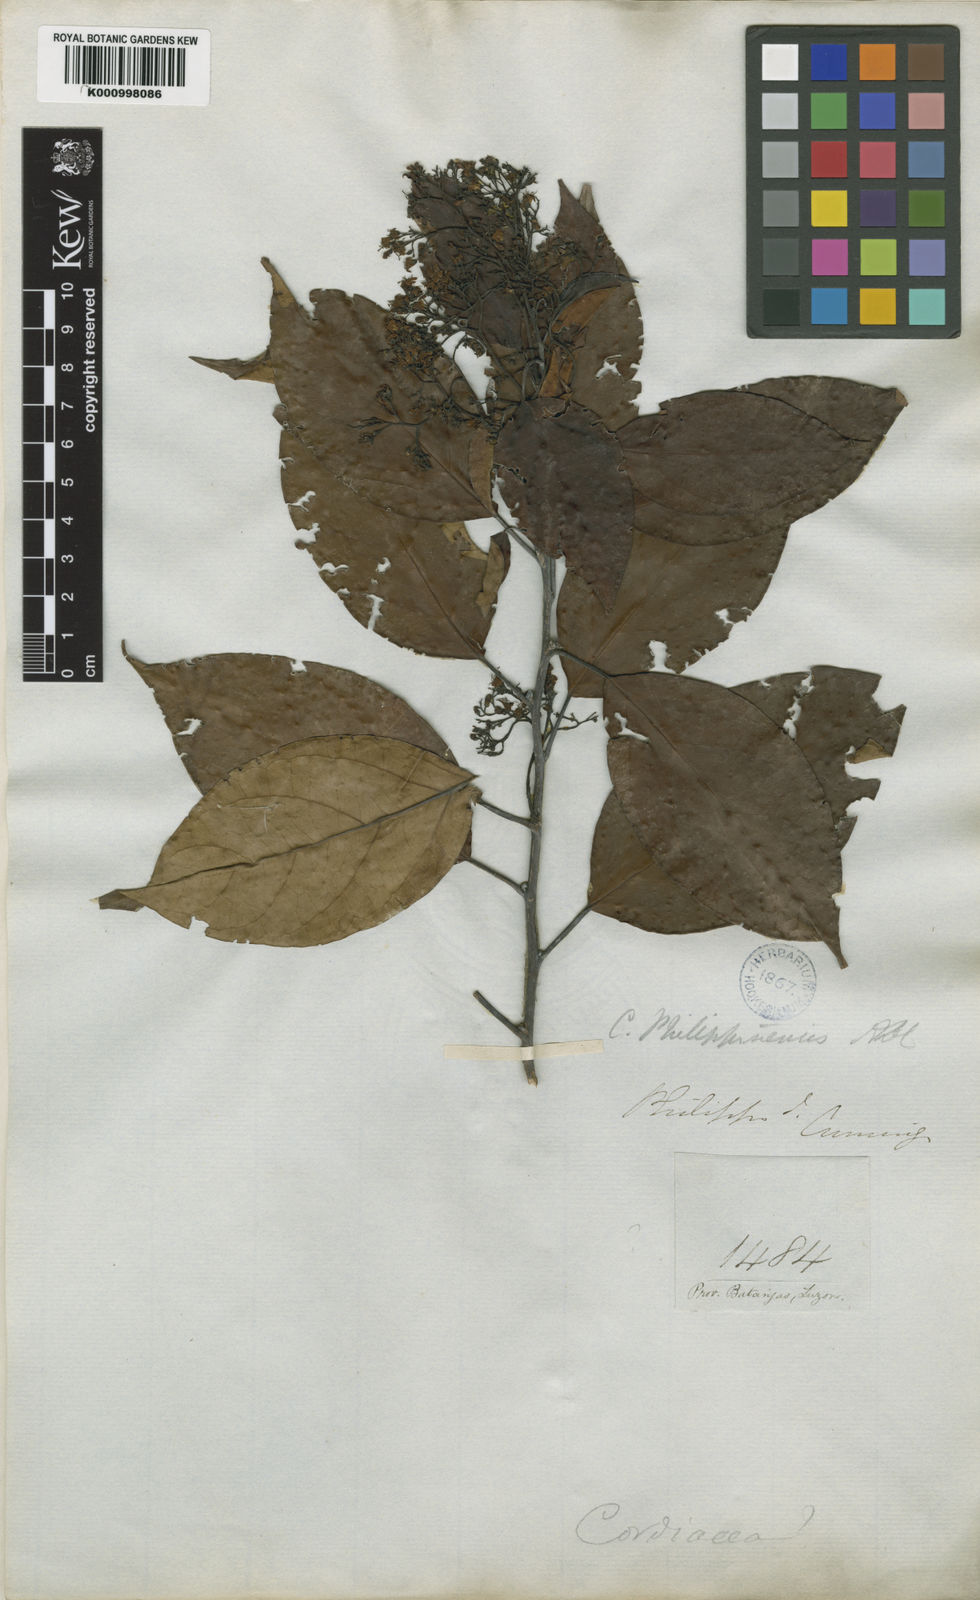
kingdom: Plantae
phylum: Tracheophyta
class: Magnoliopsida
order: Boraginales
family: Ehretiaceae
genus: Ehretia
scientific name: Ehretia philippinensis
